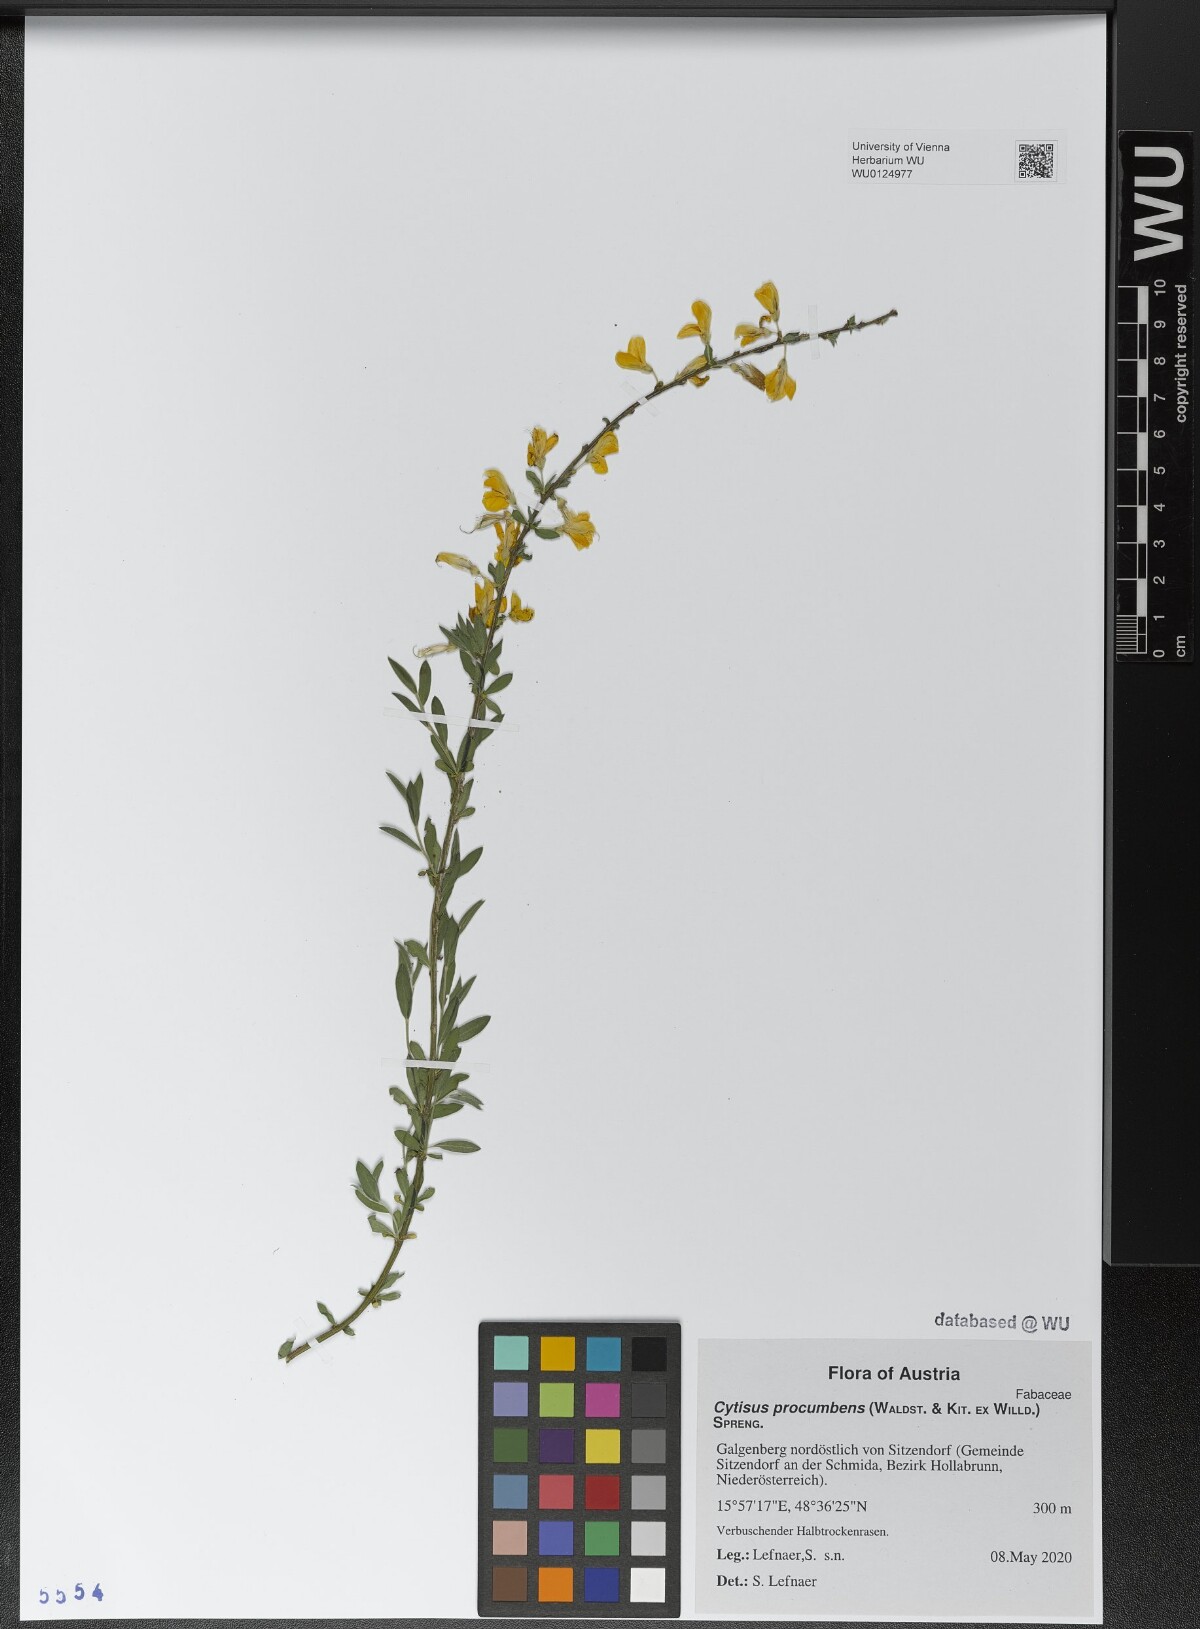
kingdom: Plantae
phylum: Tracheophyta
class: Magnoliopsida
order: Fabales
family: Fabaceae
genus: Cytisus
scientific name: Cytisus procumbens
